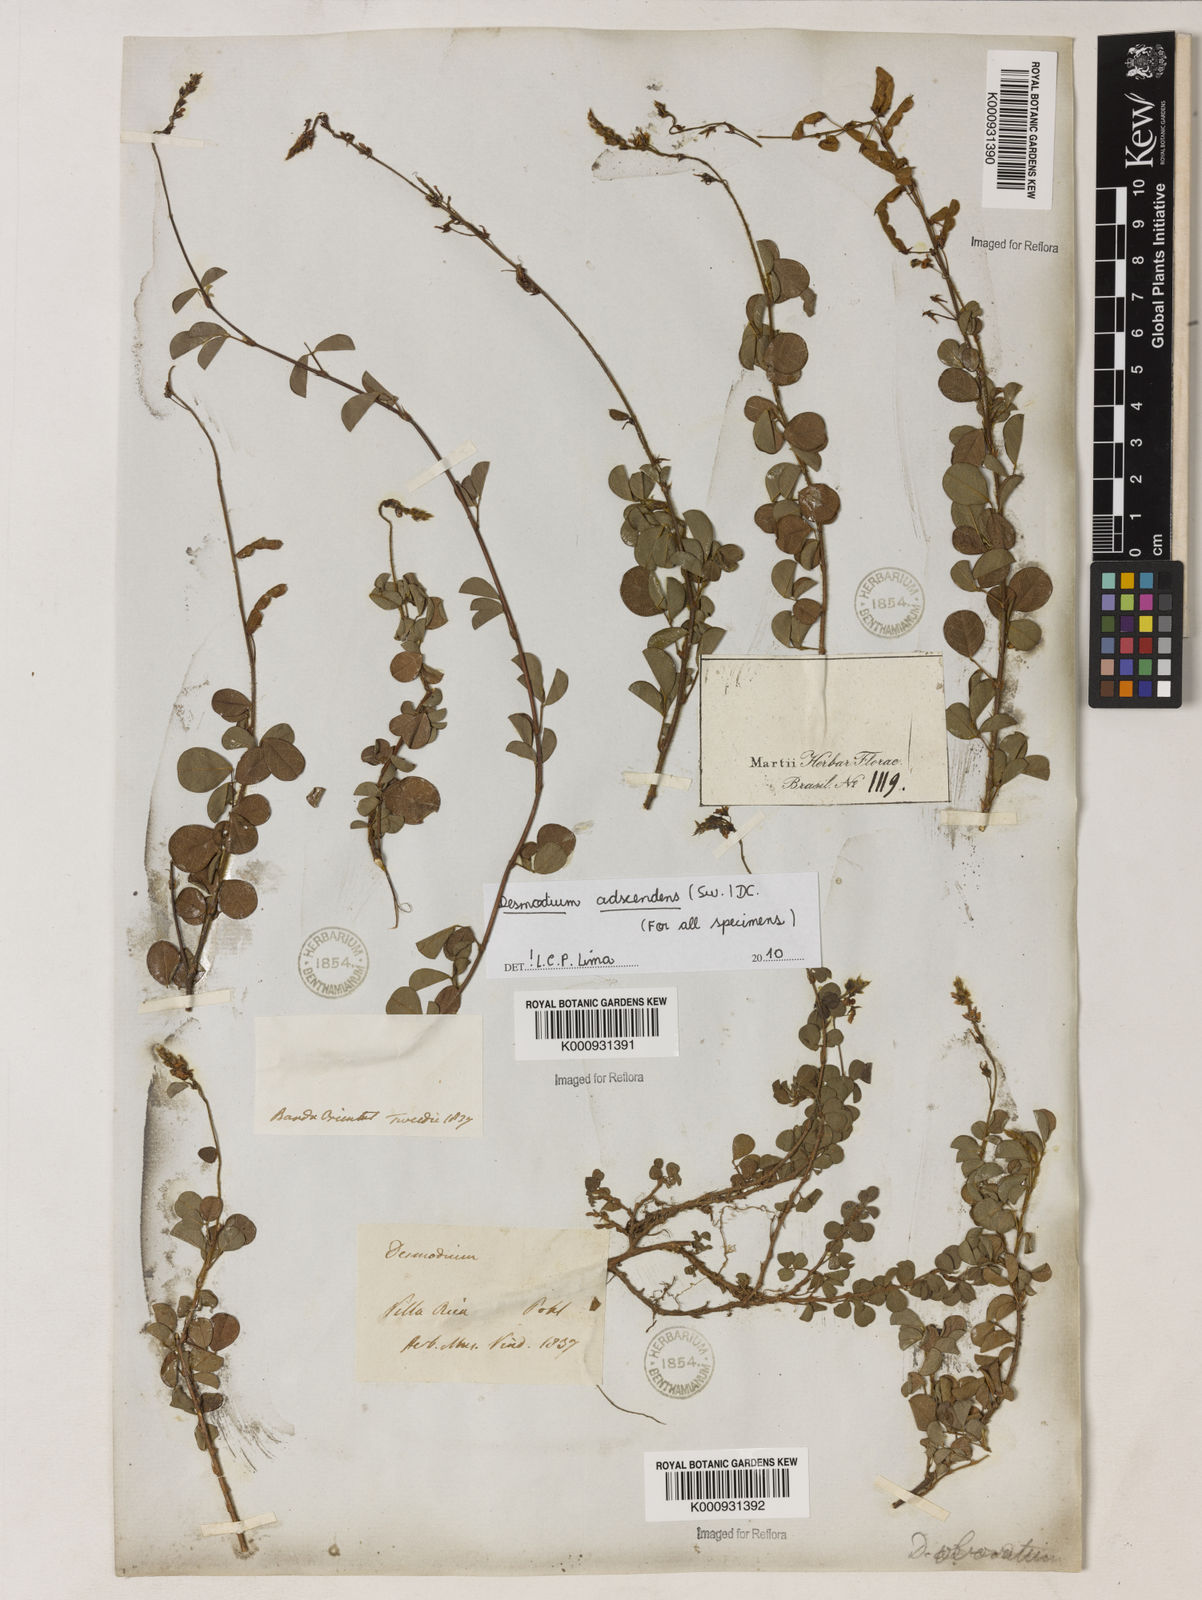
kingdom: Plantae
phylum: Tracheophyta
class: Magnoliopsida
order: Fabales
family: Fabaceae
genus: Grona
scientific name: Grona adscendens
